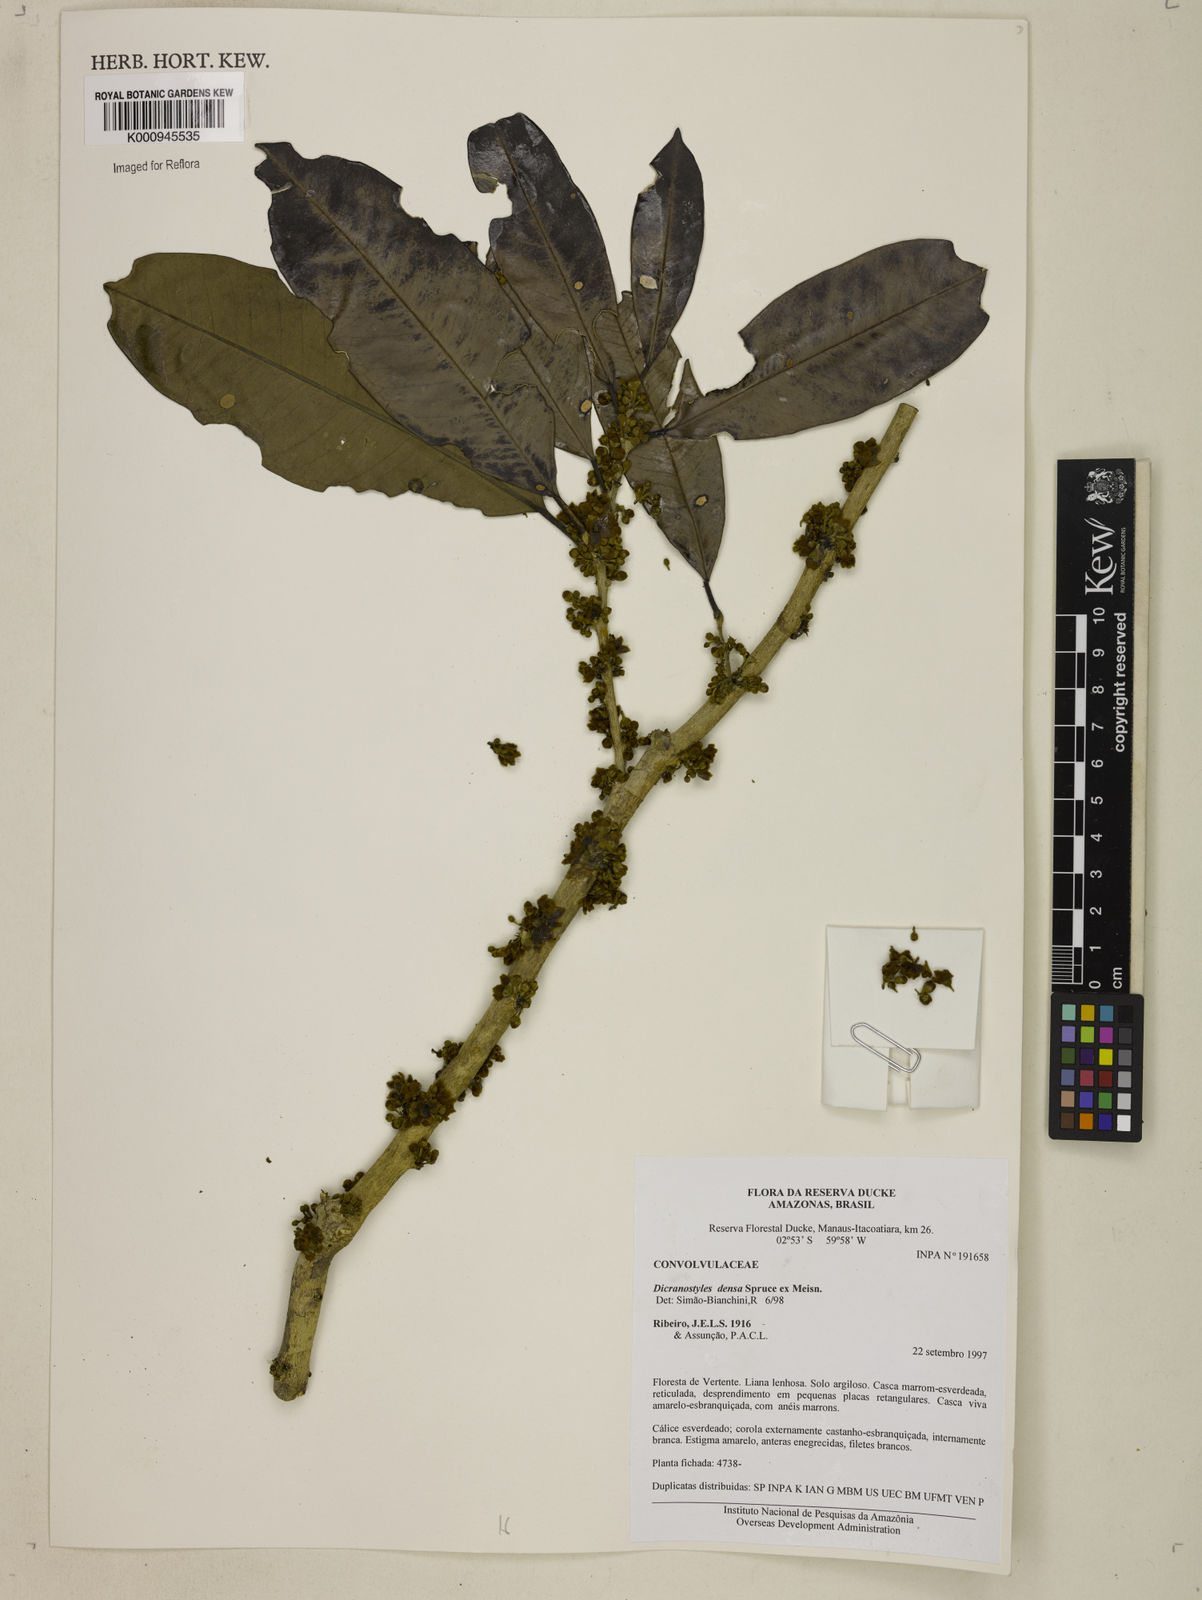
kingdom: Plantae
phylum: Tracheophyta
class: Magnoliopsida
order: Solanales
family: Convolvulaceae
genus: Dicranostyles
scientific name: Dicranostyles densa
